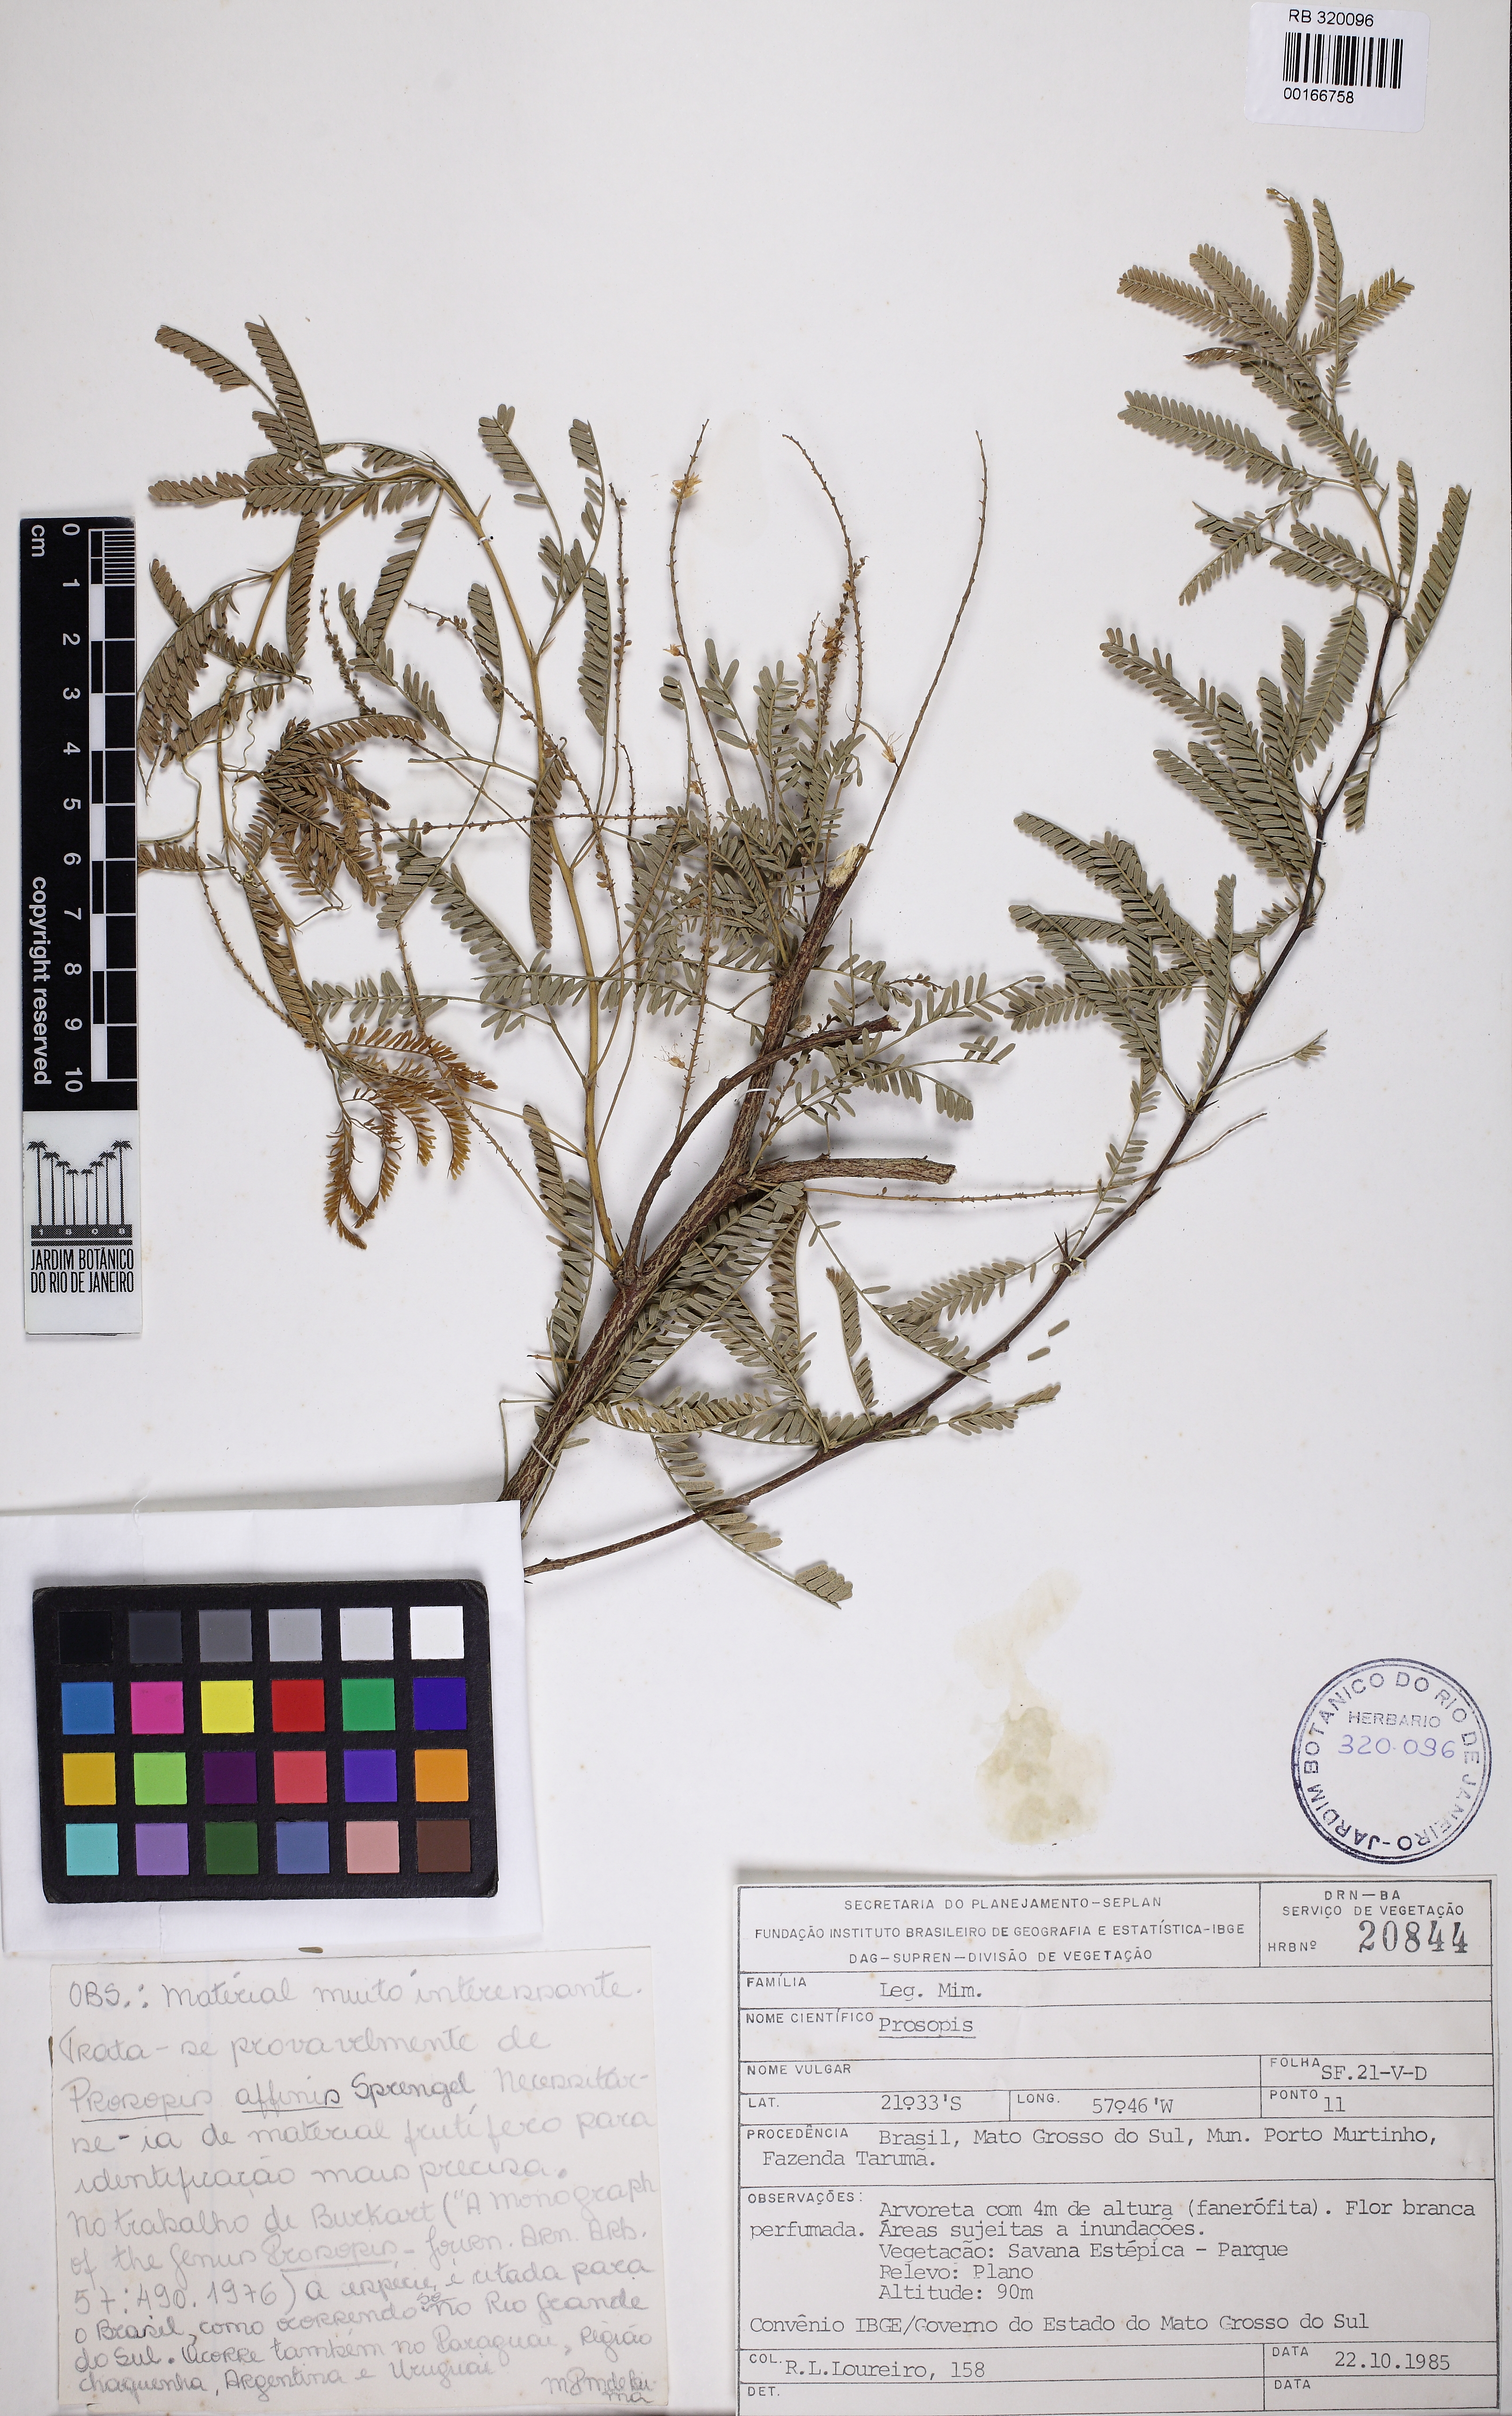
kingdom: Plantae
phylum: Tracheophyta
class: Magnoliopsida
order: Fabales
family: Fabaceae
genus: Prosopis
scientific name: Prosopis
